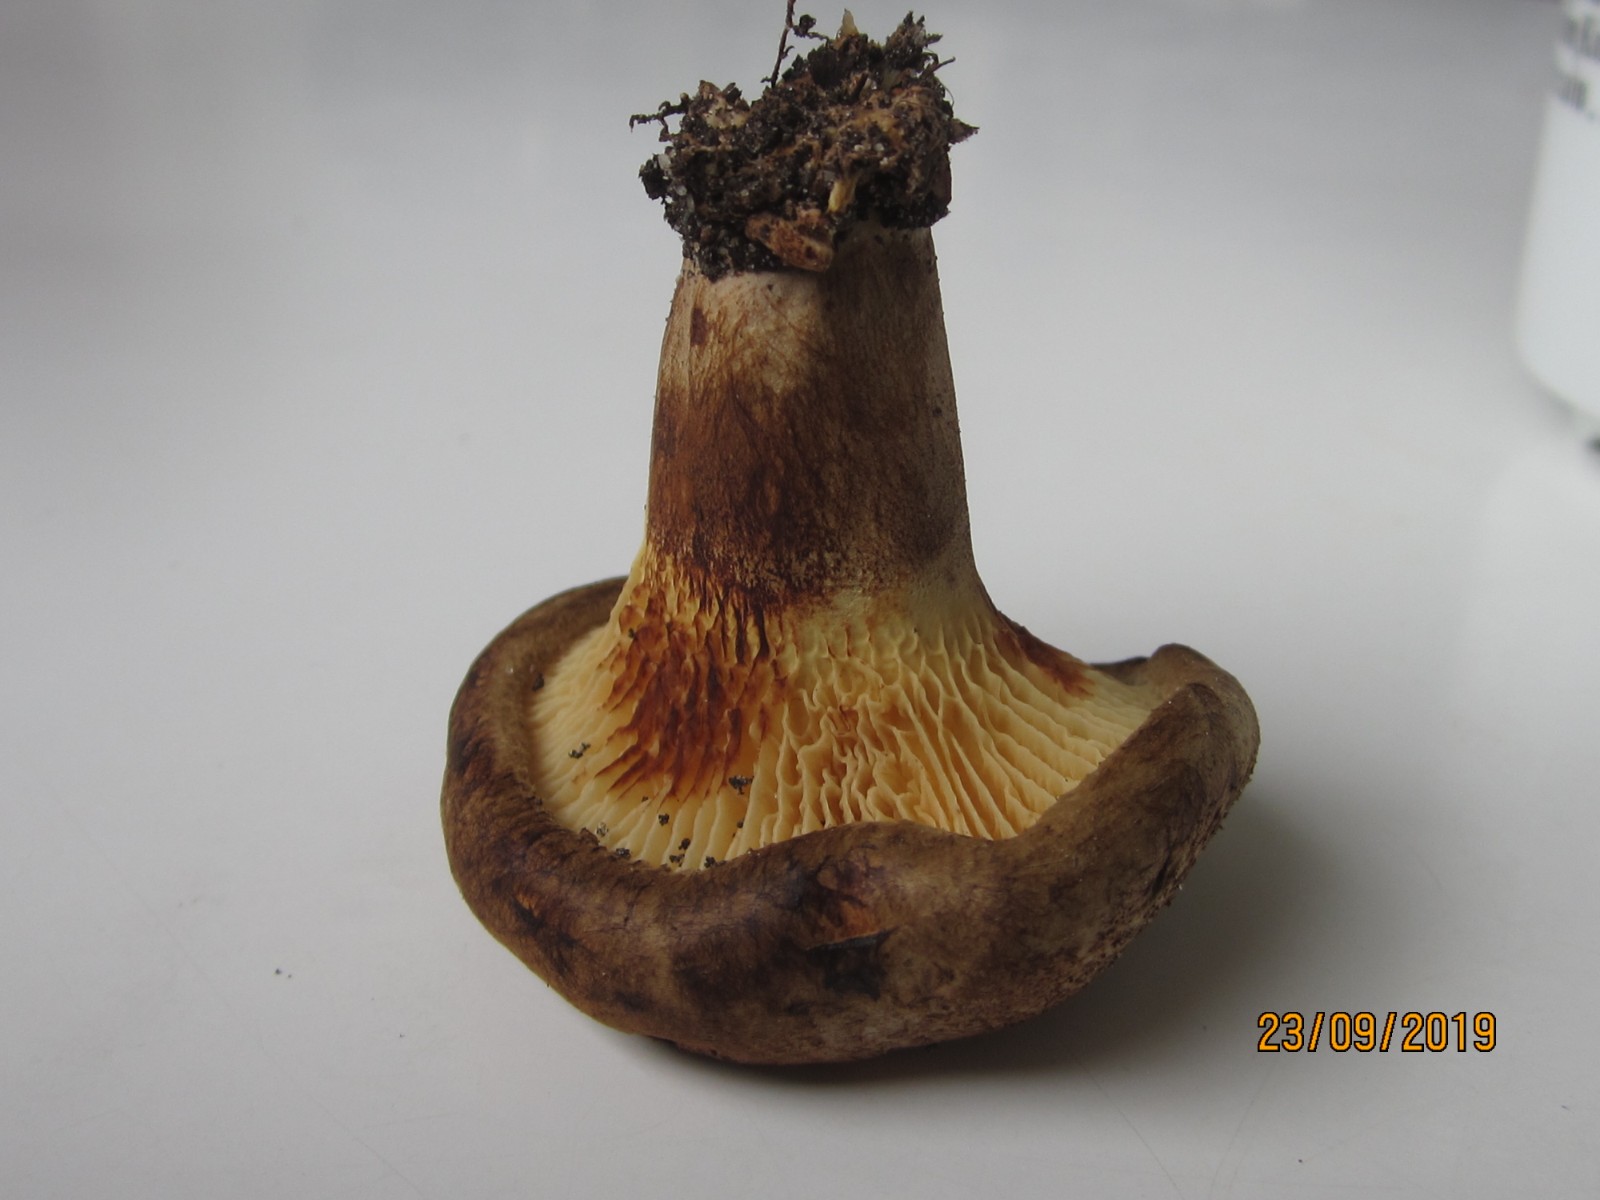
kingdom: Fungi
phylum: Basidiomycota
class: Agaricomycetes
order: Boletales
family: Paxillaceae
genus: Paxillus
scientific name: Paxillus rubicundulus
